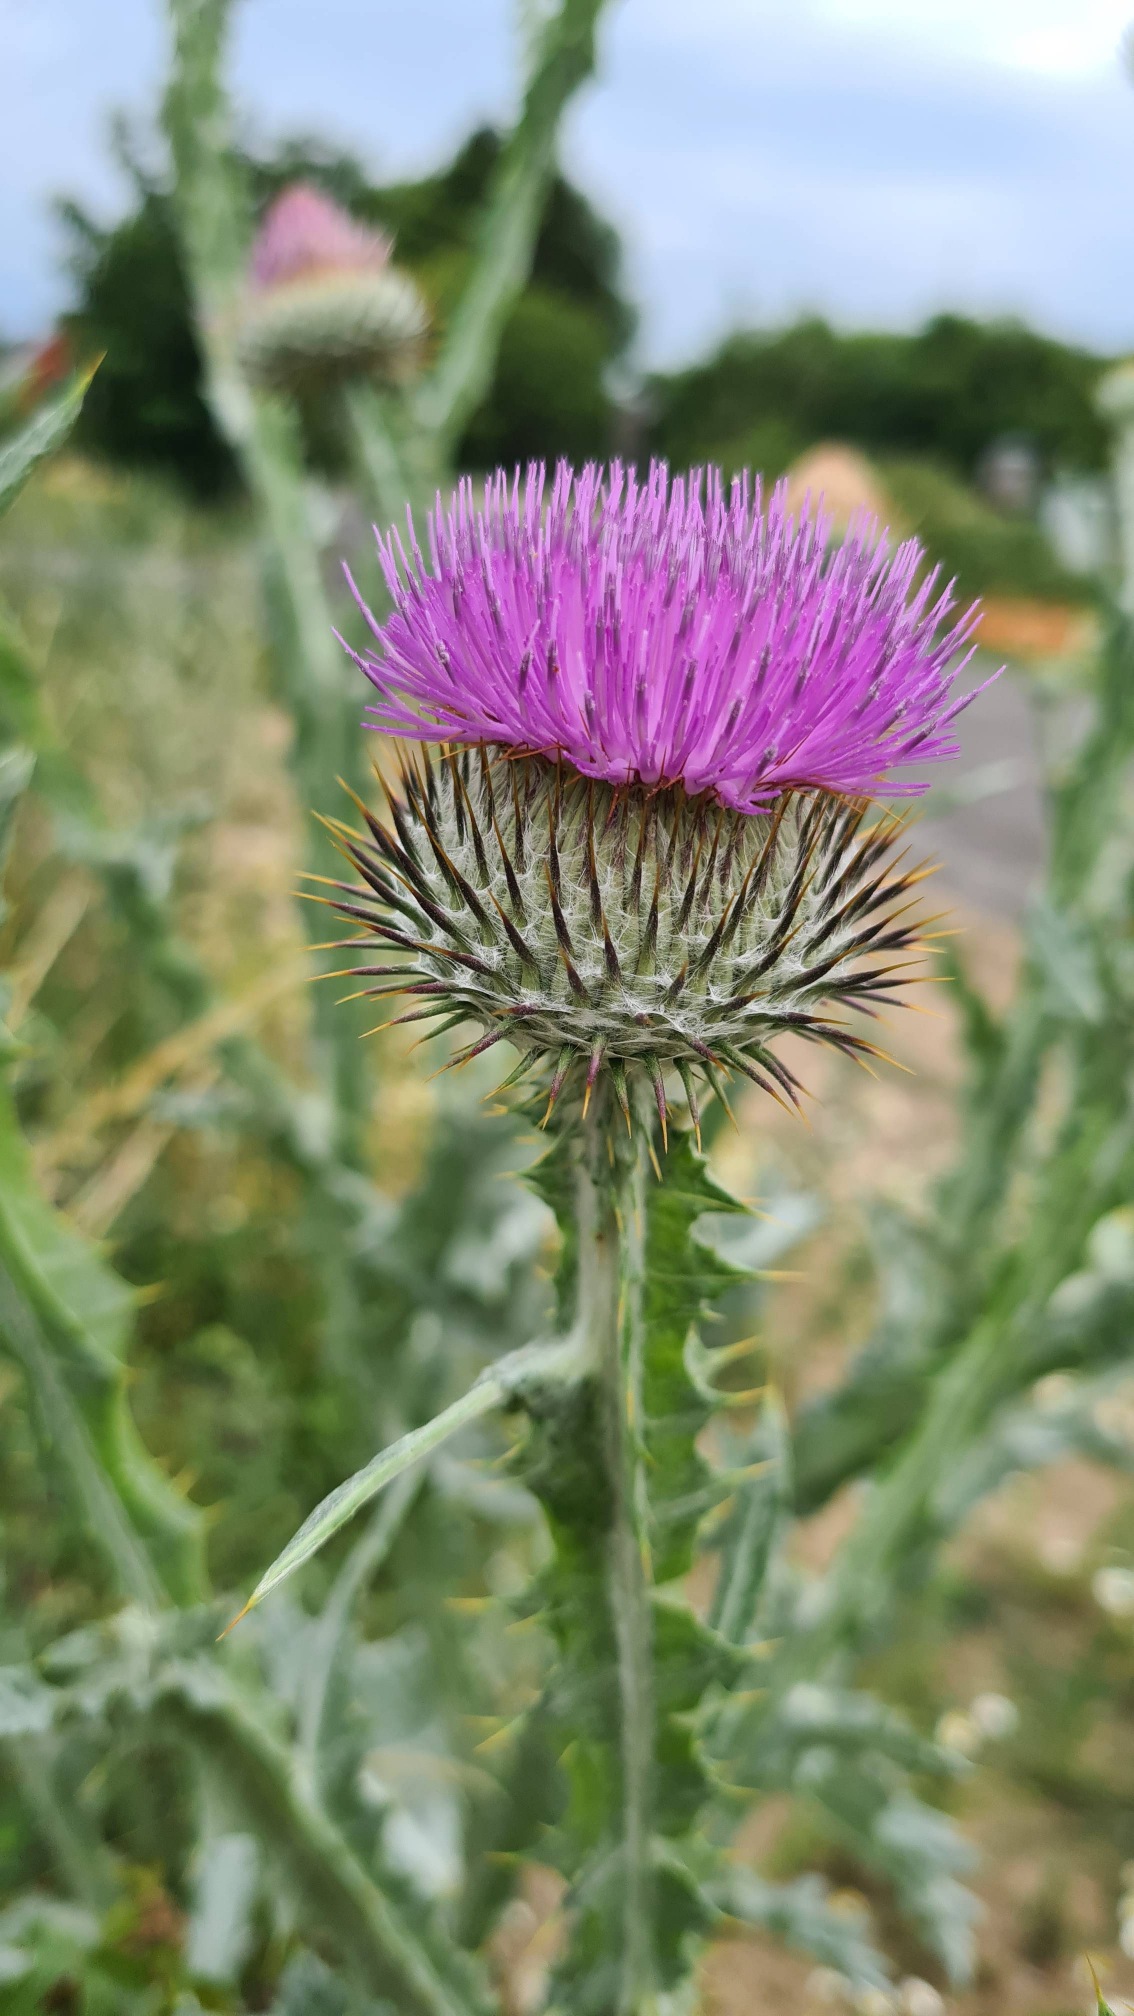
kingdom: Plantae
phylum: Tracheophyta
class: Magnoliopsida
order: Asterales
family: Asteraceae
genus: Onopordum
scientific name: Onopordum acanthium
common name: Æselfoder
